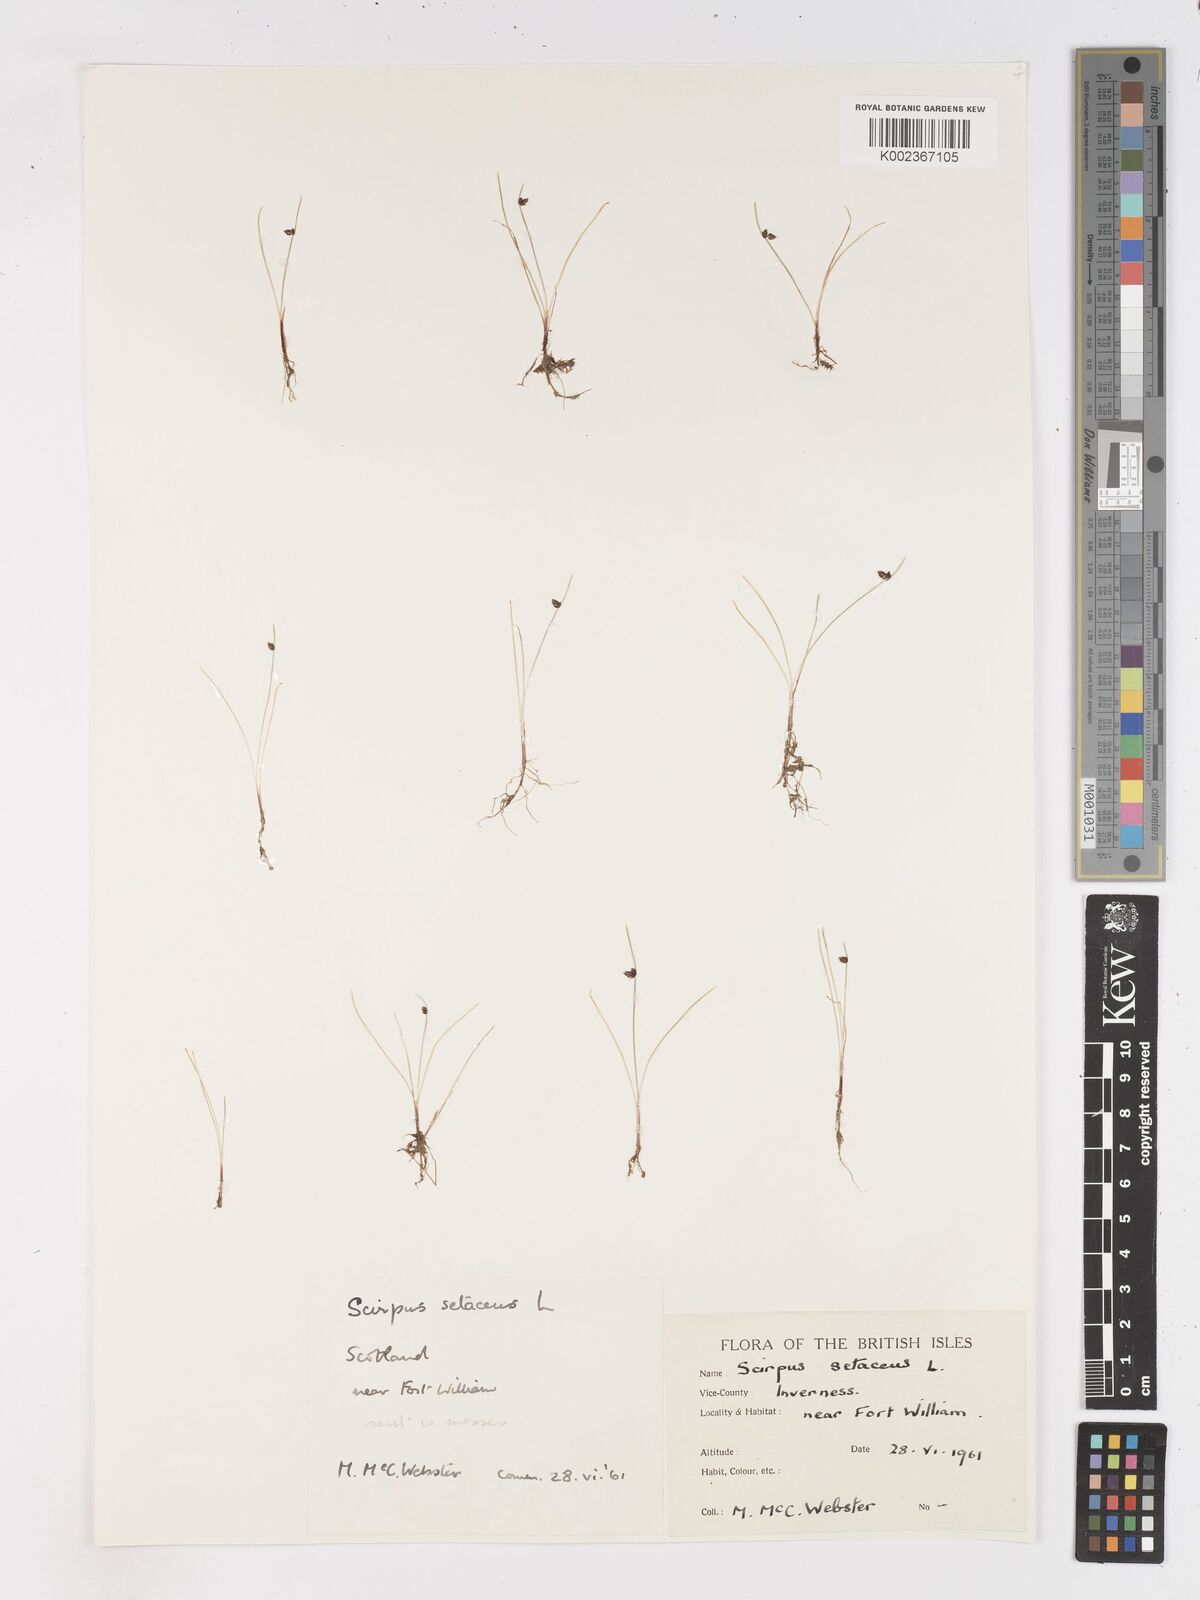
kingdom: Plantae
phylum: Tracheophyta
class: Liliopsida
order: Poales
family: Cyperaceae
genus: Isolepis
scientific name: Isolepis setacea
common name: Bristle club-rush
